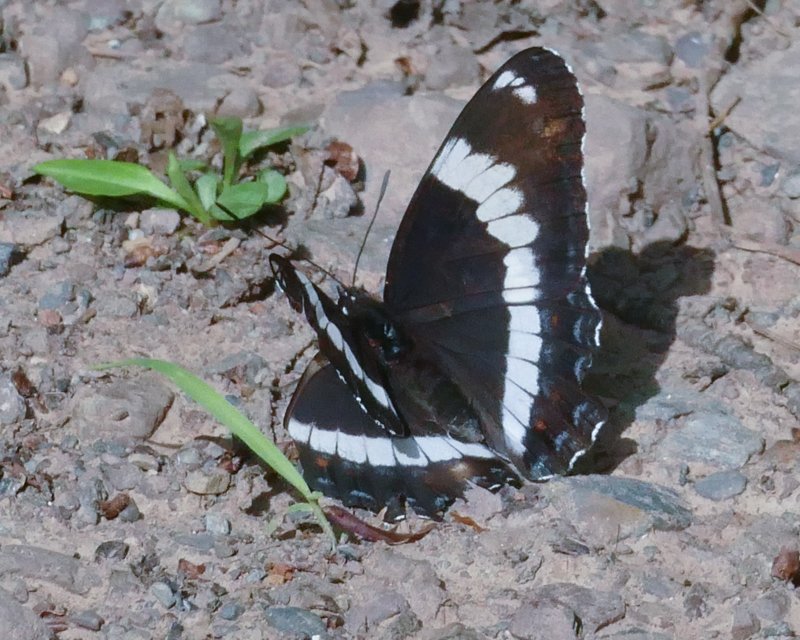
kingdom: Animalia
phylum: Arthropoda
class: Insecta
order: Lepidoptera
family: Nymphalidae
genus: Limenitis
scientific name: Limenitis arthemis
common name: Red-spotted Admiral
